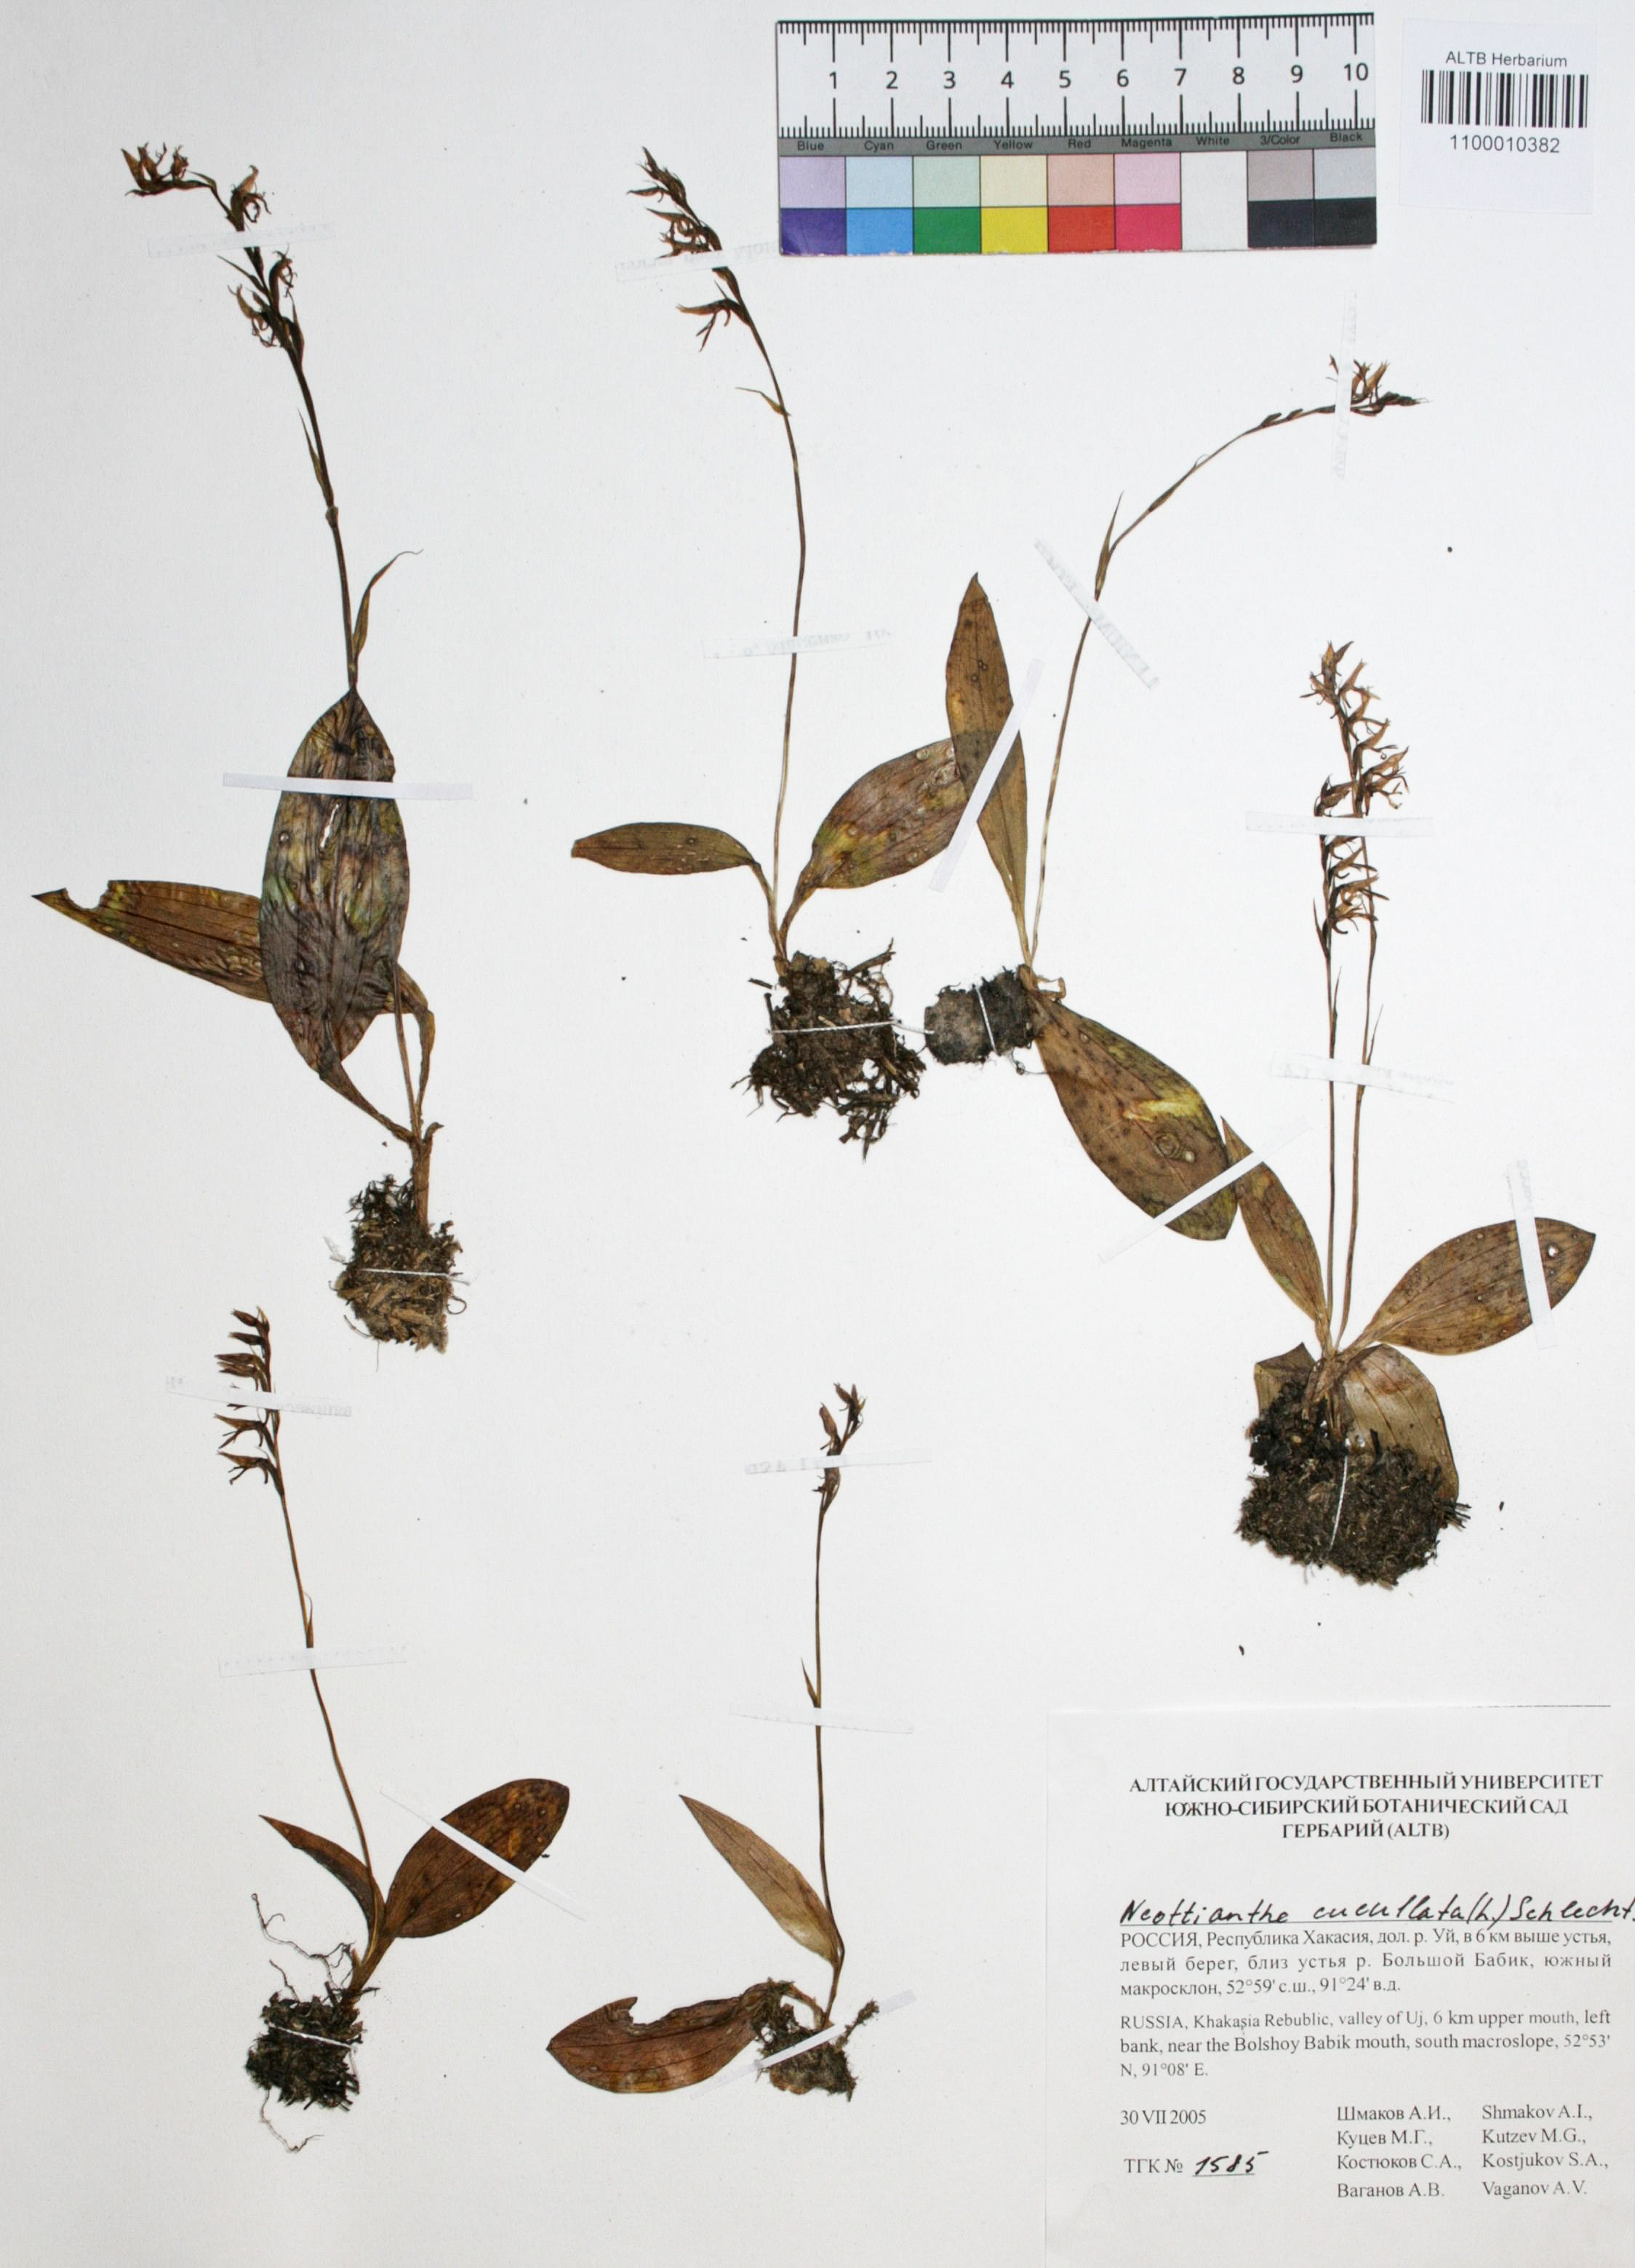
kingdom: Plantae
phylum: Tracheophyta
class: Liliopsida
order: Asparagales
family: Orchidaceae
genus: Hemipilia
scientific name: Hemipilia cucullata
